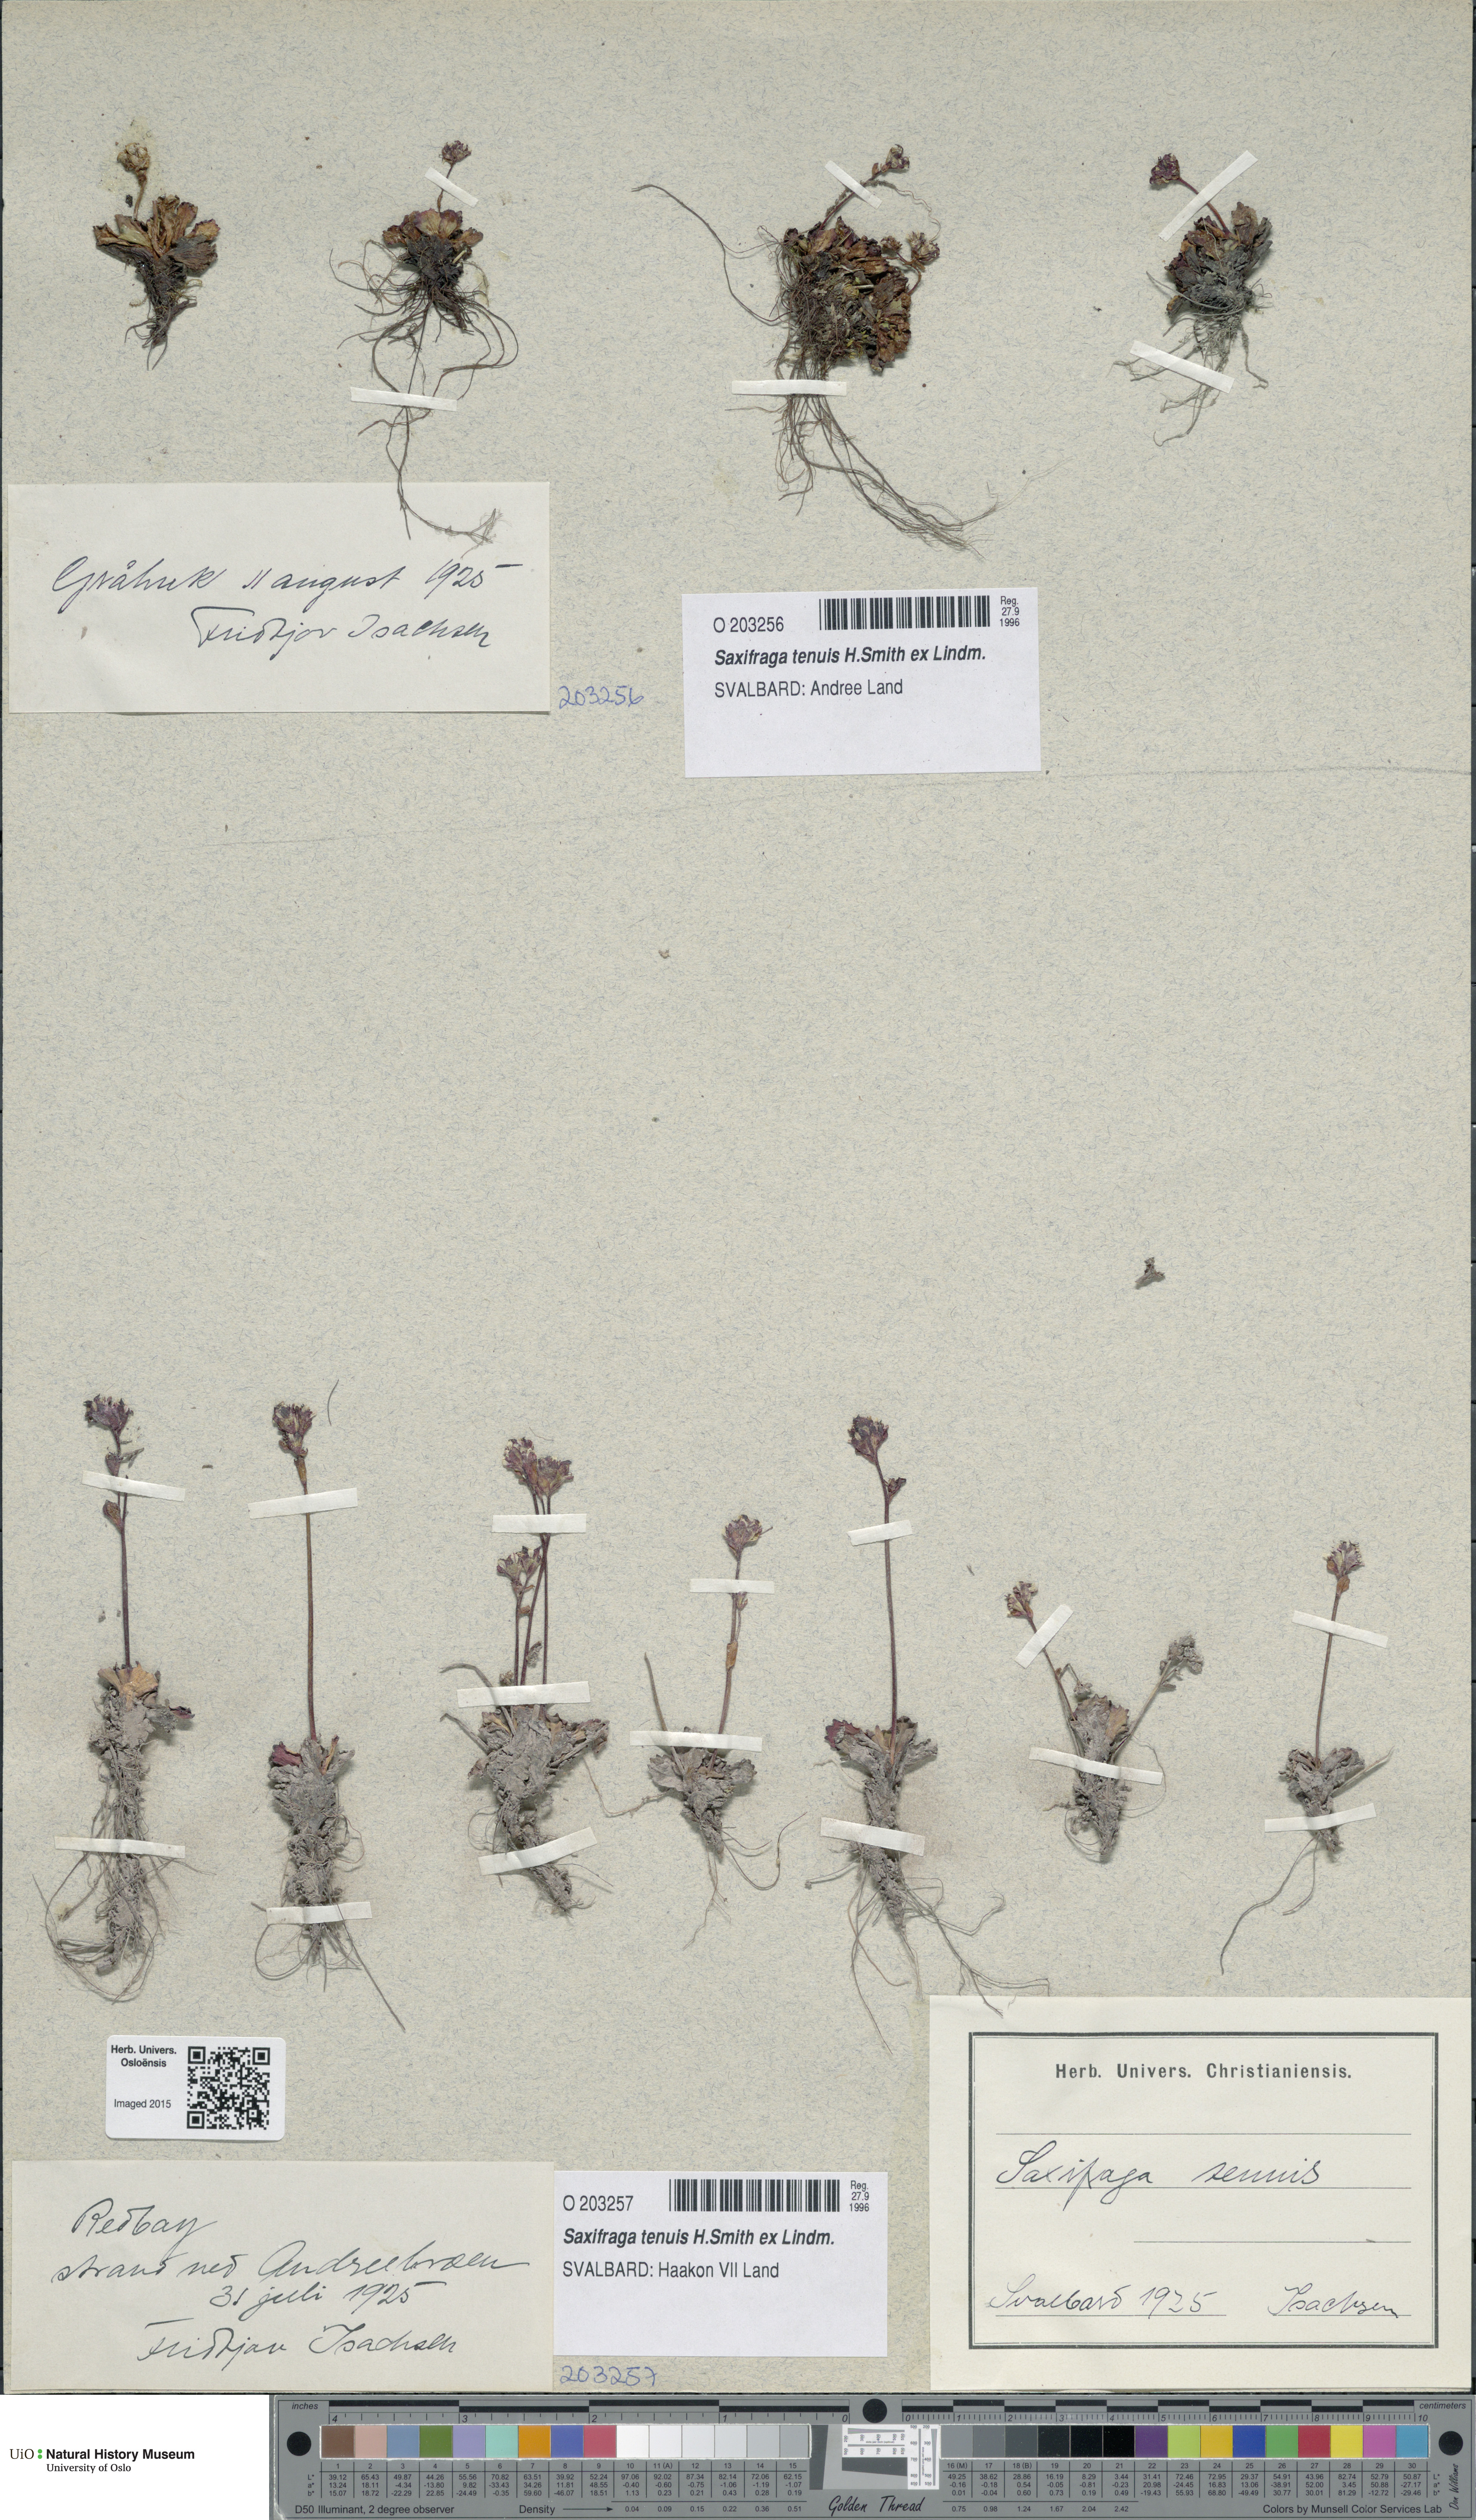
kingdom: Plantae
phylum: Tracheophyta
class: Magnoliopsida
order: Saxifragales
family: Saxifragaceae
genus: Micranthes
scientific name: Micranthes tenuis
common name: Ottertail pass saxifrage
